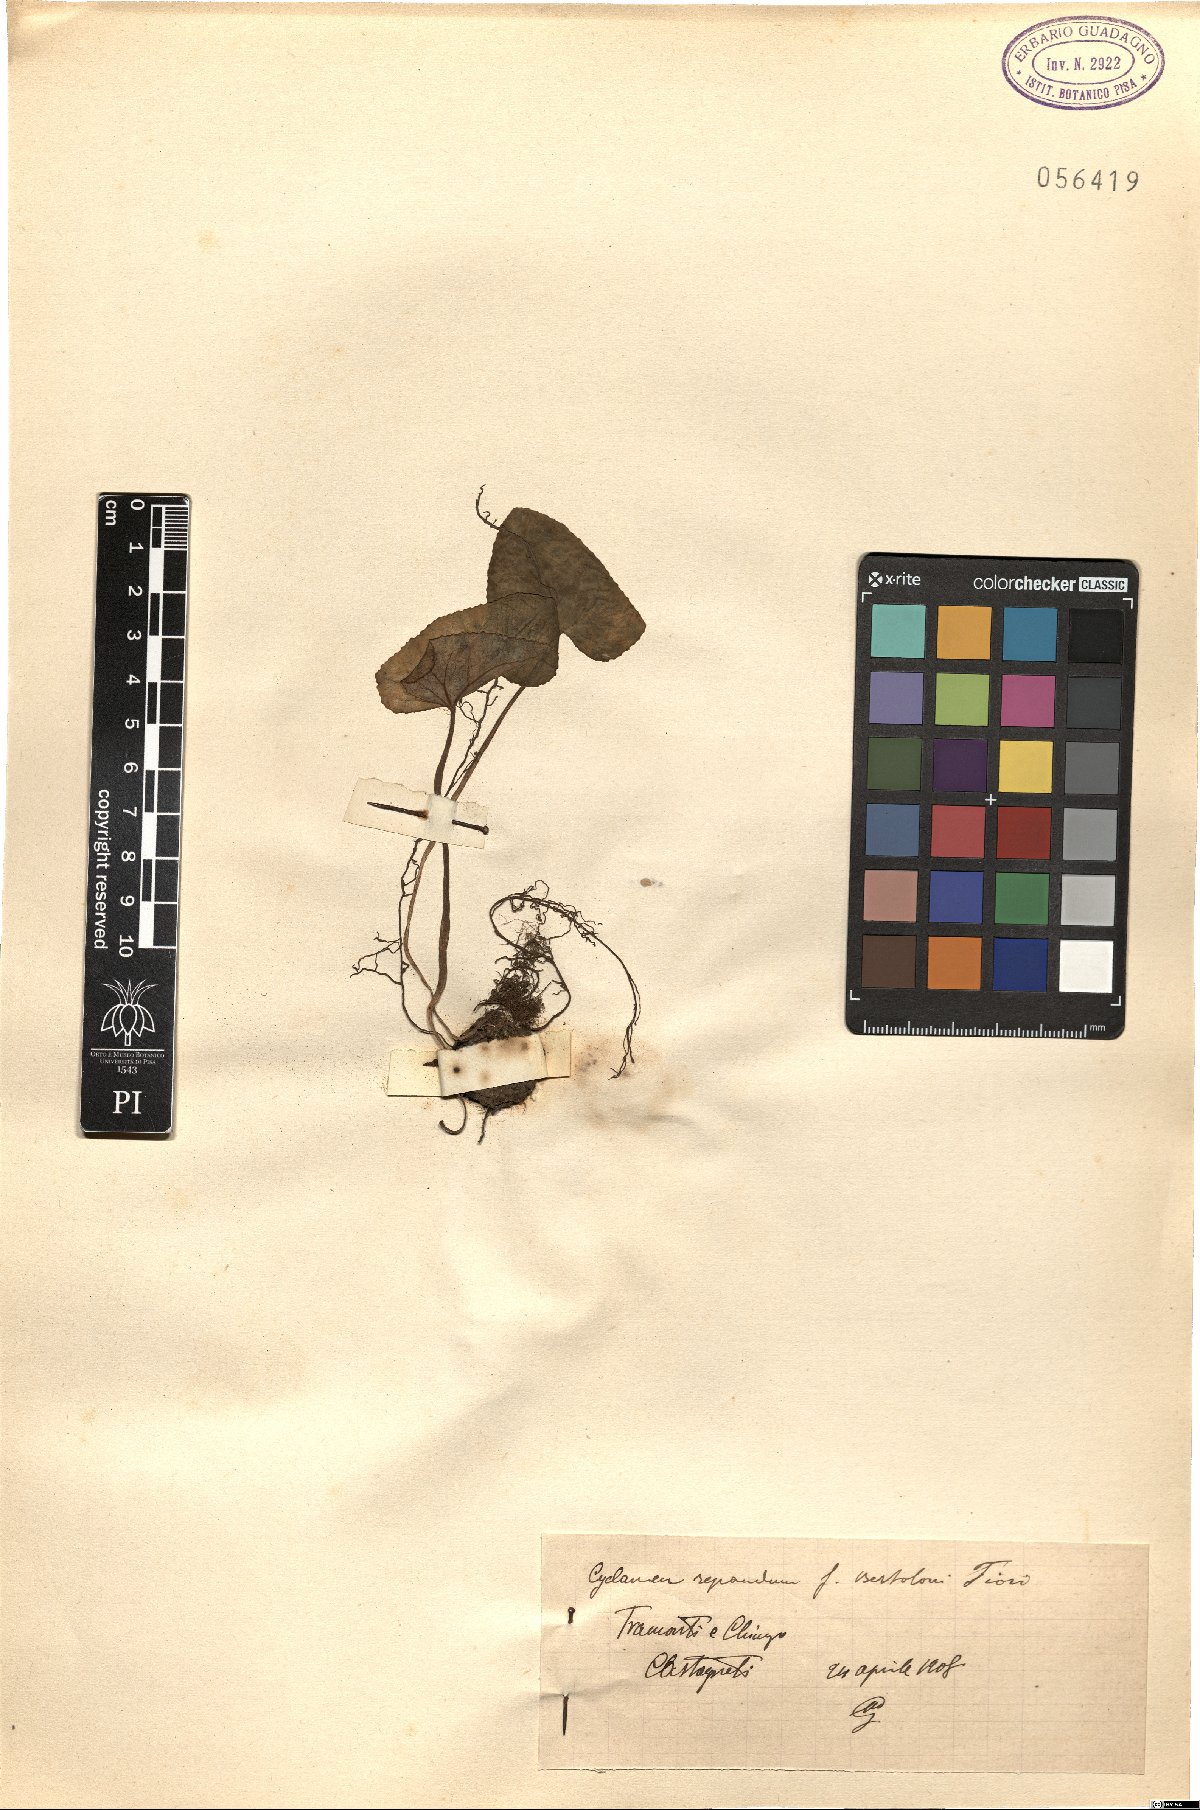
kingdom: Plantae
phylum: Tracheophyta
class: Magnoliopsida
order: Ericales
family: Primulaceae
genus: Cyclamen
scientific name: Cyclamen repandum
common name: Spring sowbread
